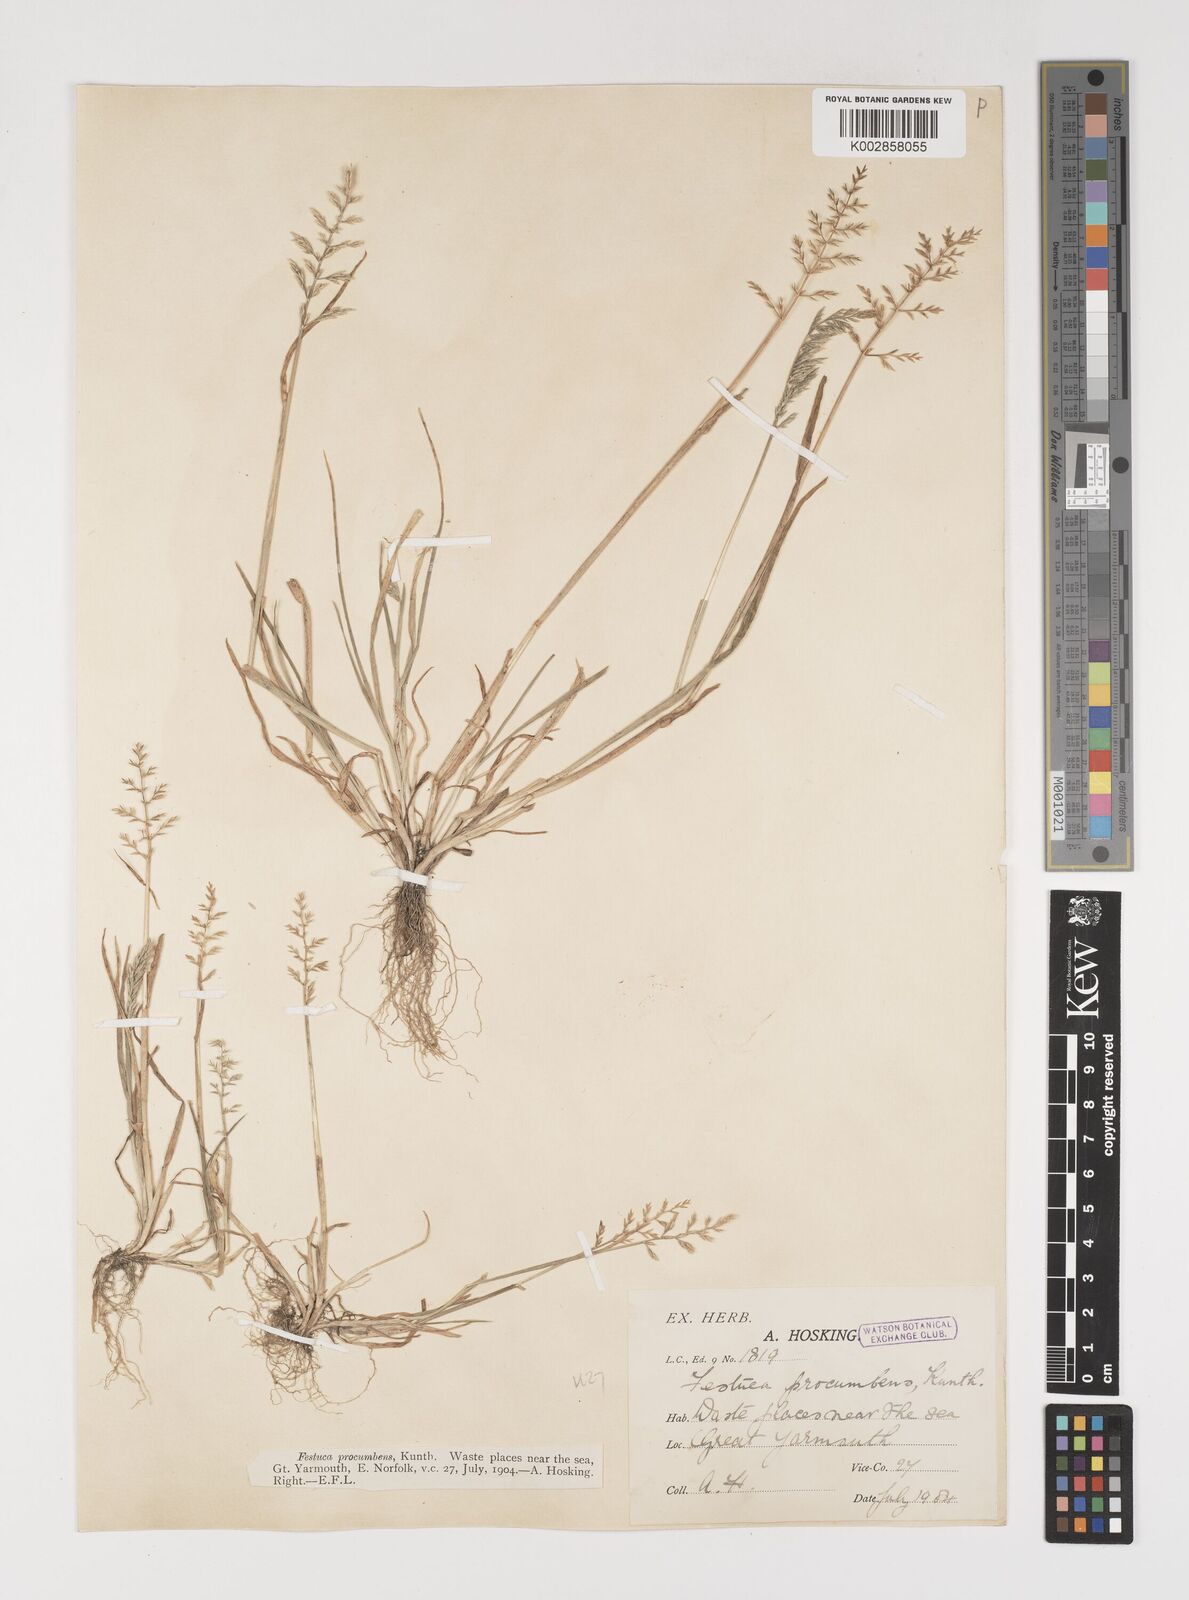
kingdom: Plantae
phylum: Tracheophyta
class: Liliopsida
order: Poales
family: Poaceae
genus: Puccinellia
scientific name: Puccinellia rupestris
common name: Stiff saltmarsh-grass
